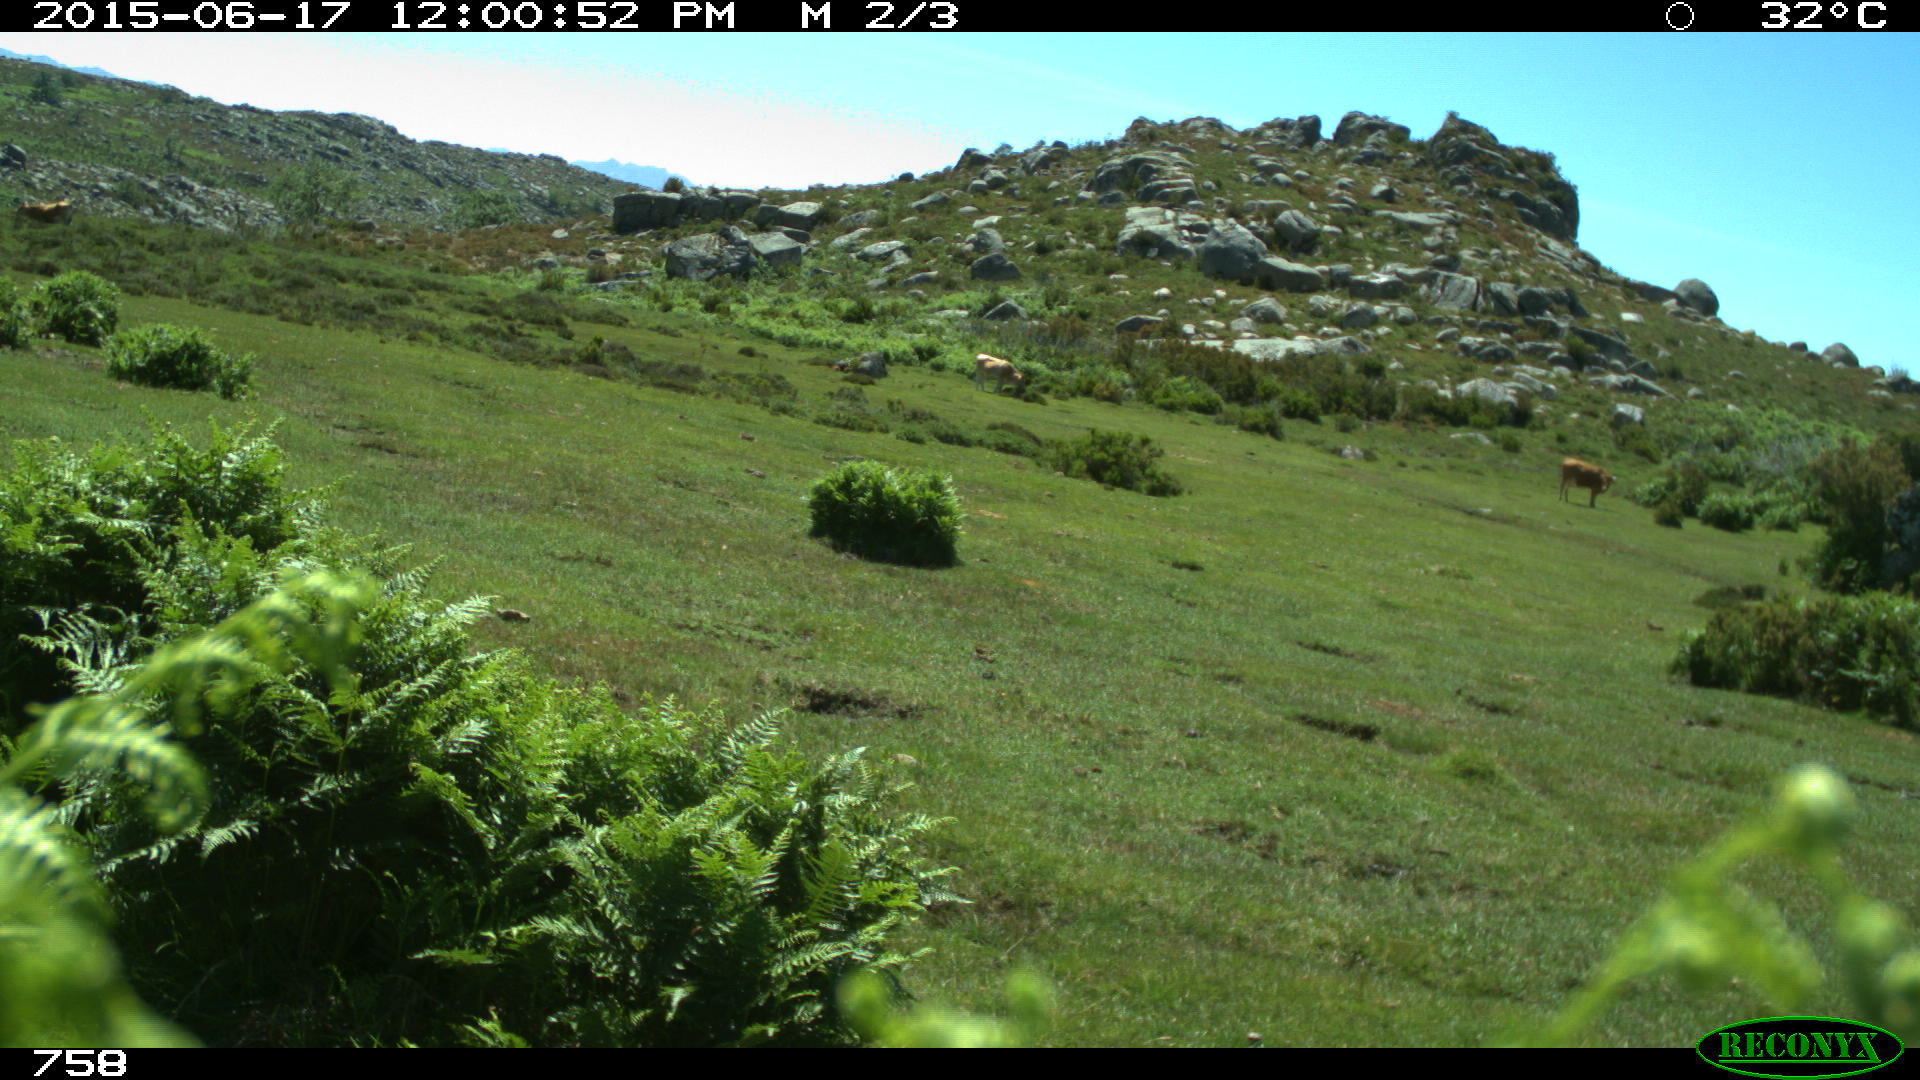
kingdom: Animalia
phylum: Chordata
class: Mammalia
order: Artiodactyla
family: Bovidae
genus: Bos
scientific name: Bos taurus
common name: Domesticated cattle
